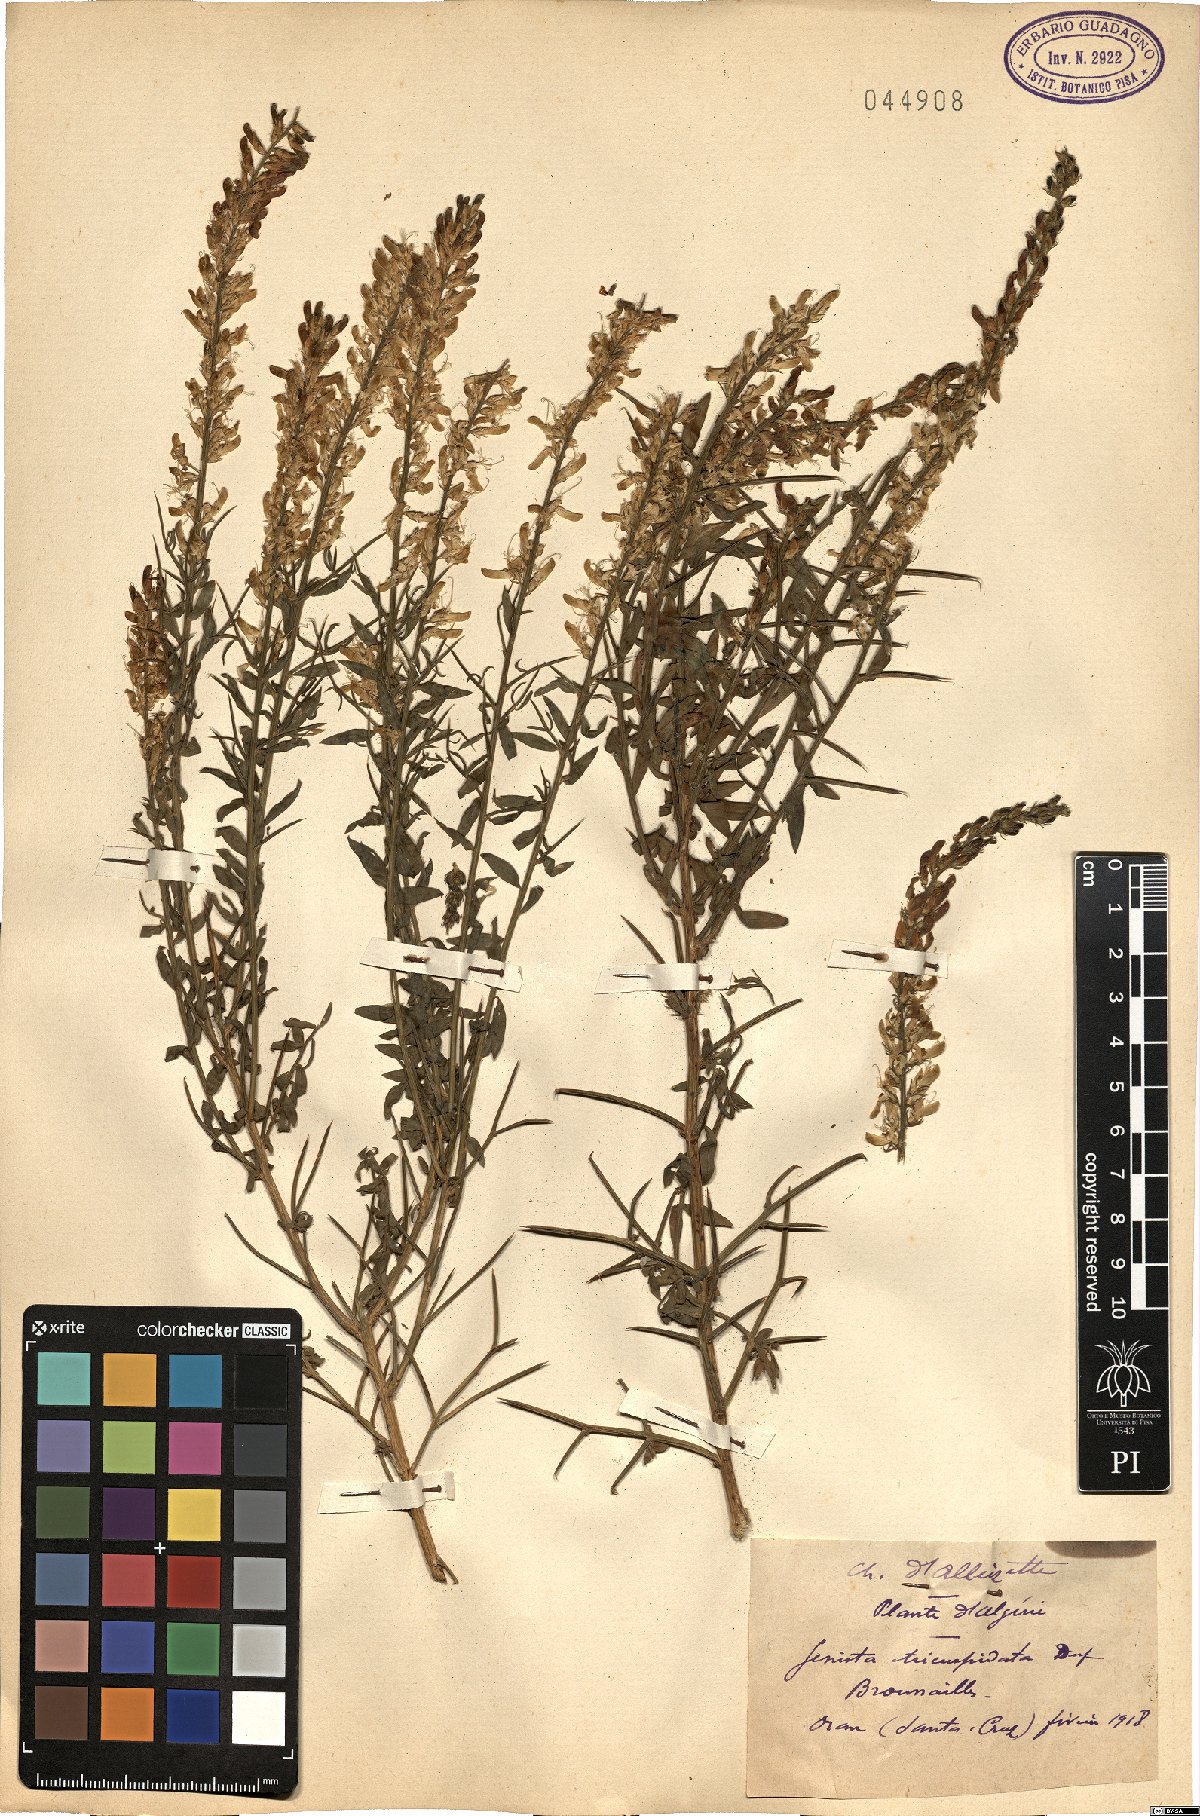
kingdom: Plantae
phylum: Tracheophyta
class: Magnoliopsida
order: Fabales
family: Fabaceae
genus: Genista
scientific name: Genista tricuspidata
